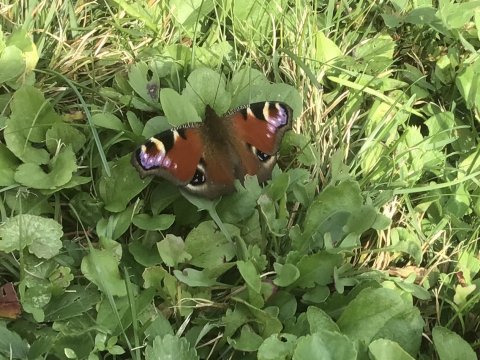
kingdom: Animalia
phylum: Arthropoda
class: Insecta
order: Lepidoptera
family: Nymphalidae
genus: Aglais
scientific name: Aglais io
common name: European Peacock
